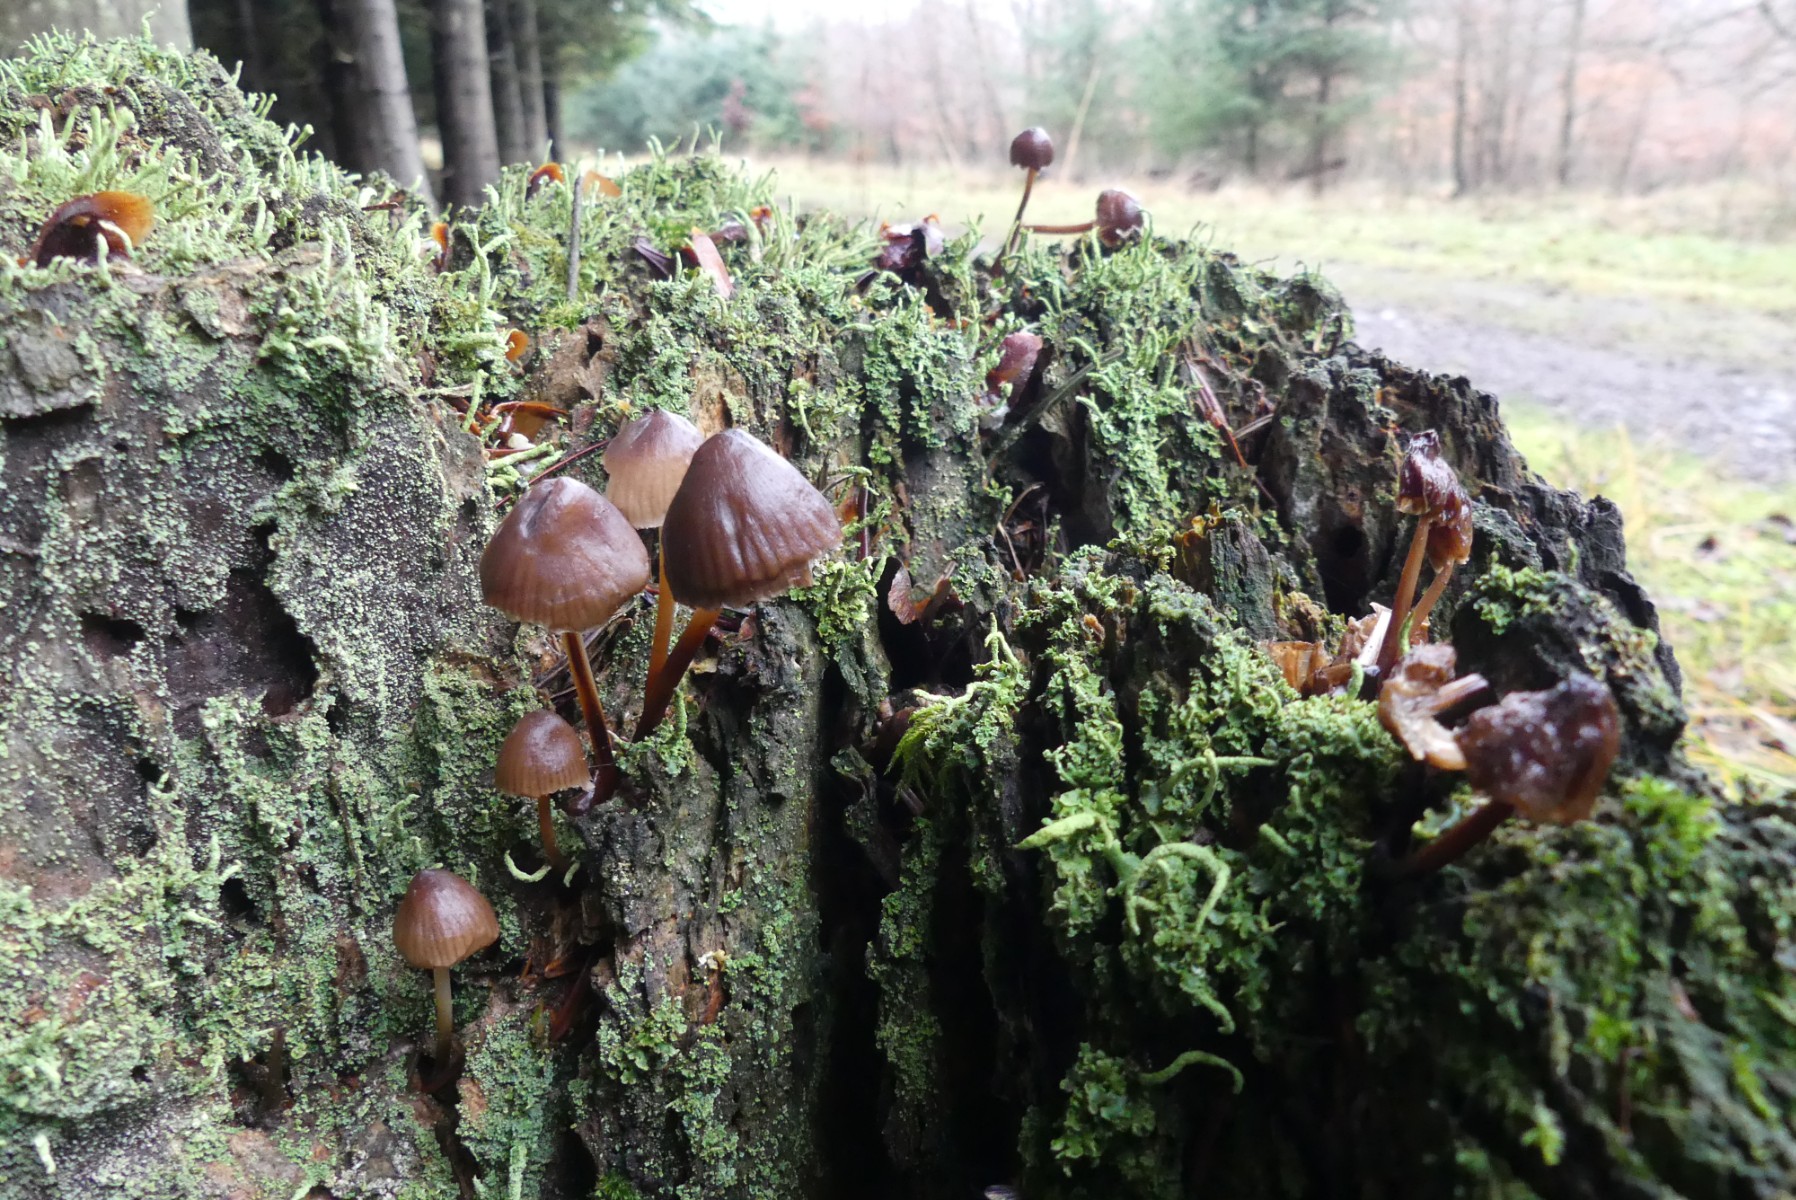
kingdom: Fungi
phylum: Basidiomycota
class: Agaricomycetes
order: Agaricales
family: Mycenaceae
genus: Mycena
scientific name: Mycena
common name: huesvamp
